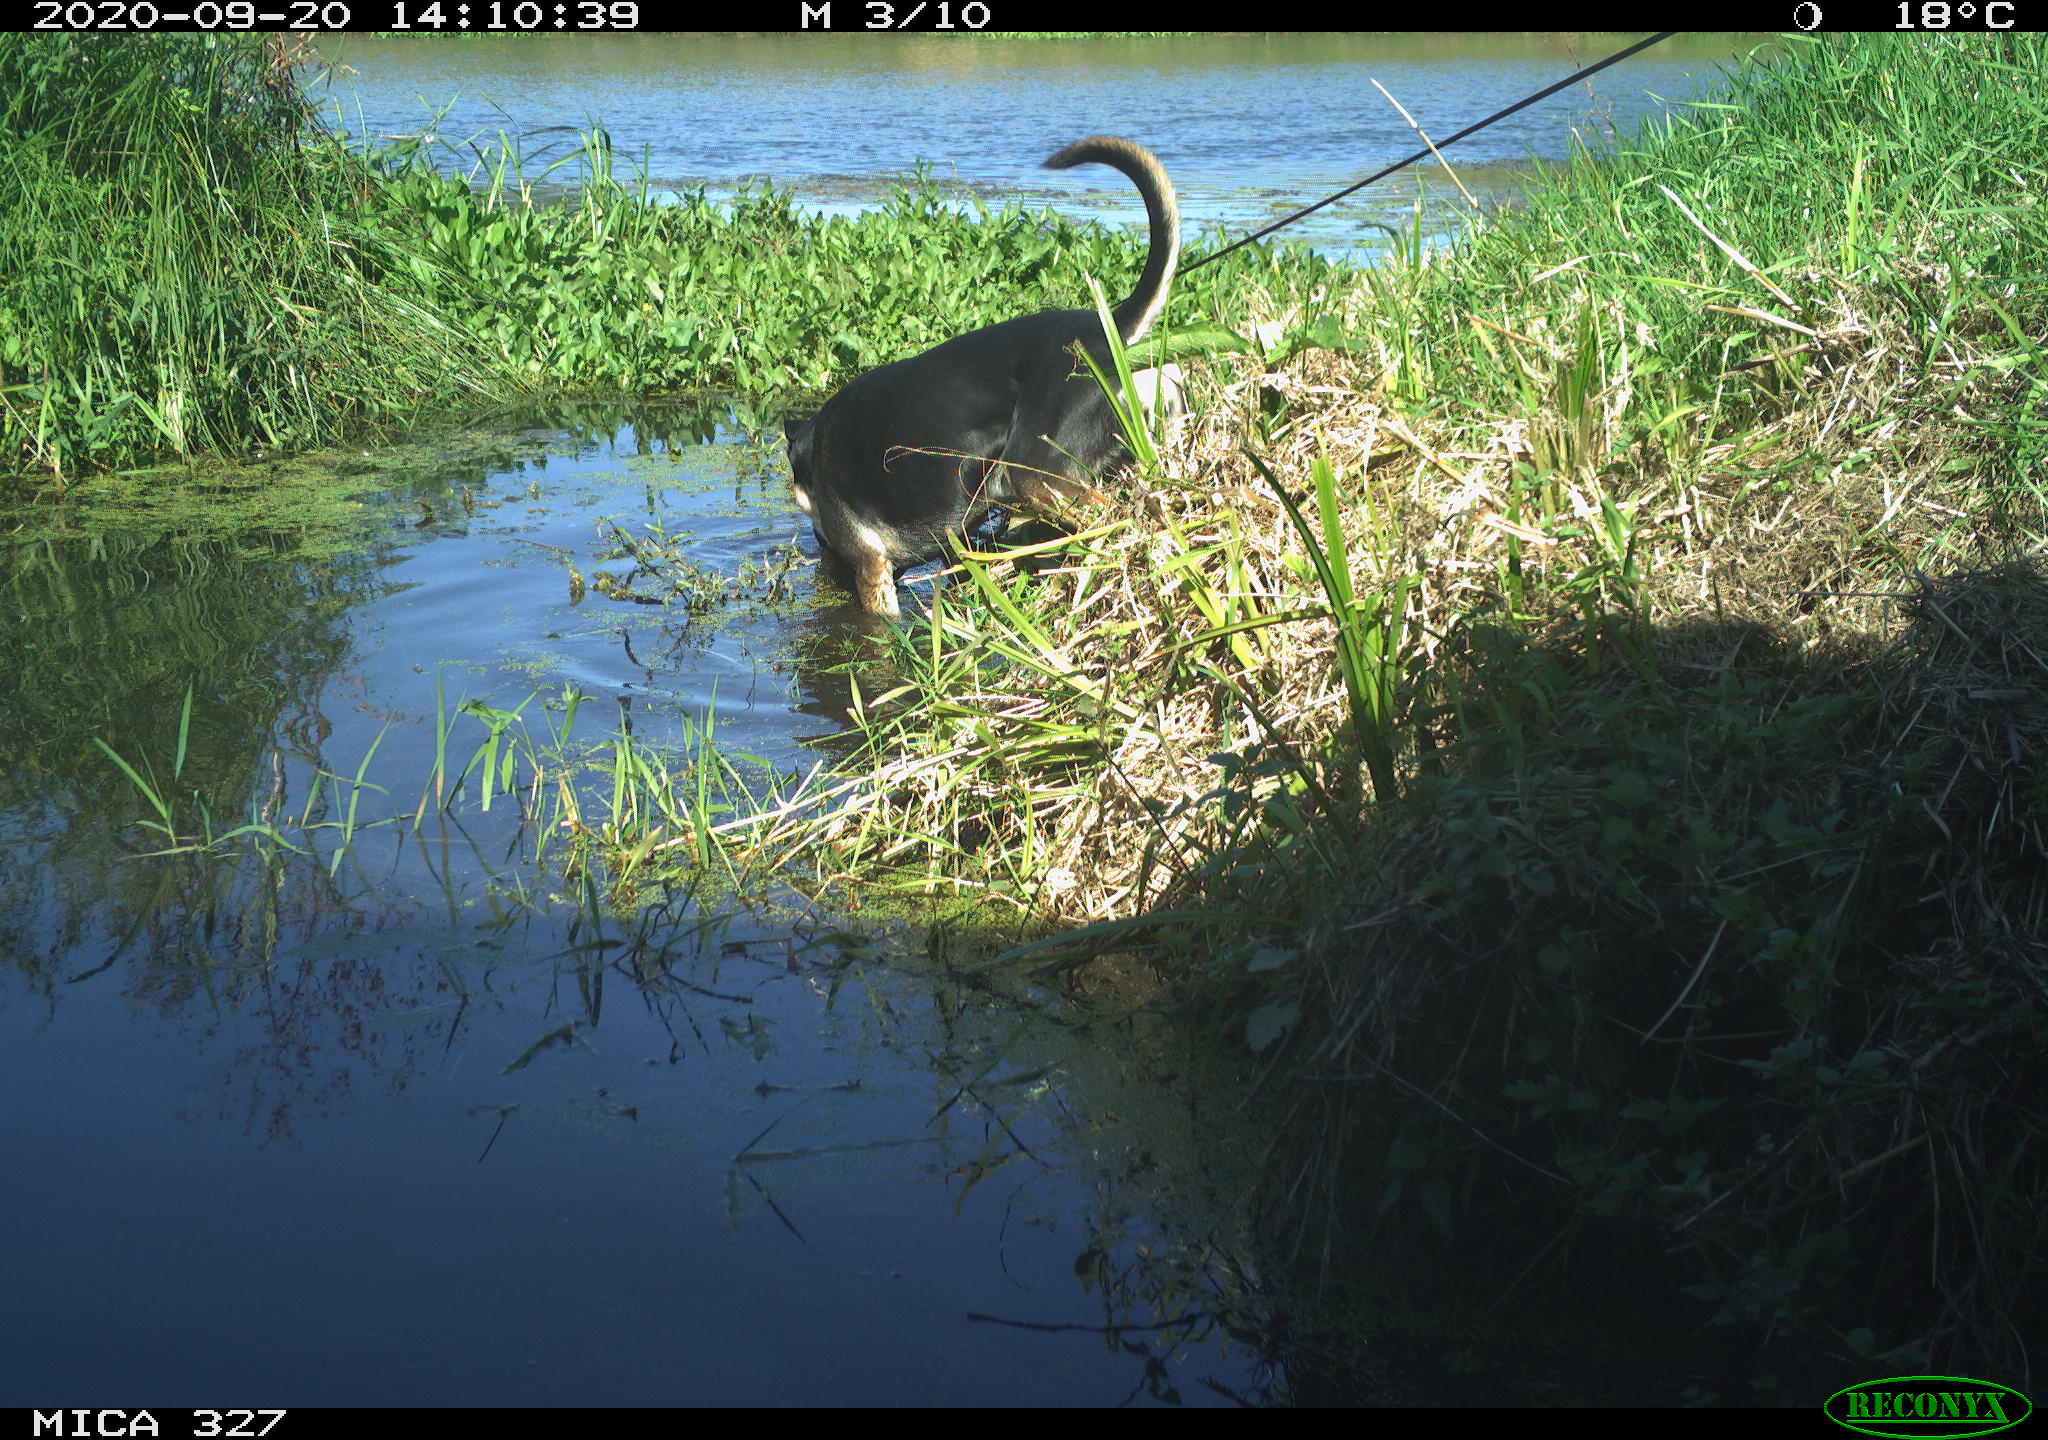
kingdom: Animalia
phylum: Chordata
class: Mammalia
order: Carnivora
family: Canidae
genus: Canis
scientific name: Canis lupus
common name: Gray wolf
